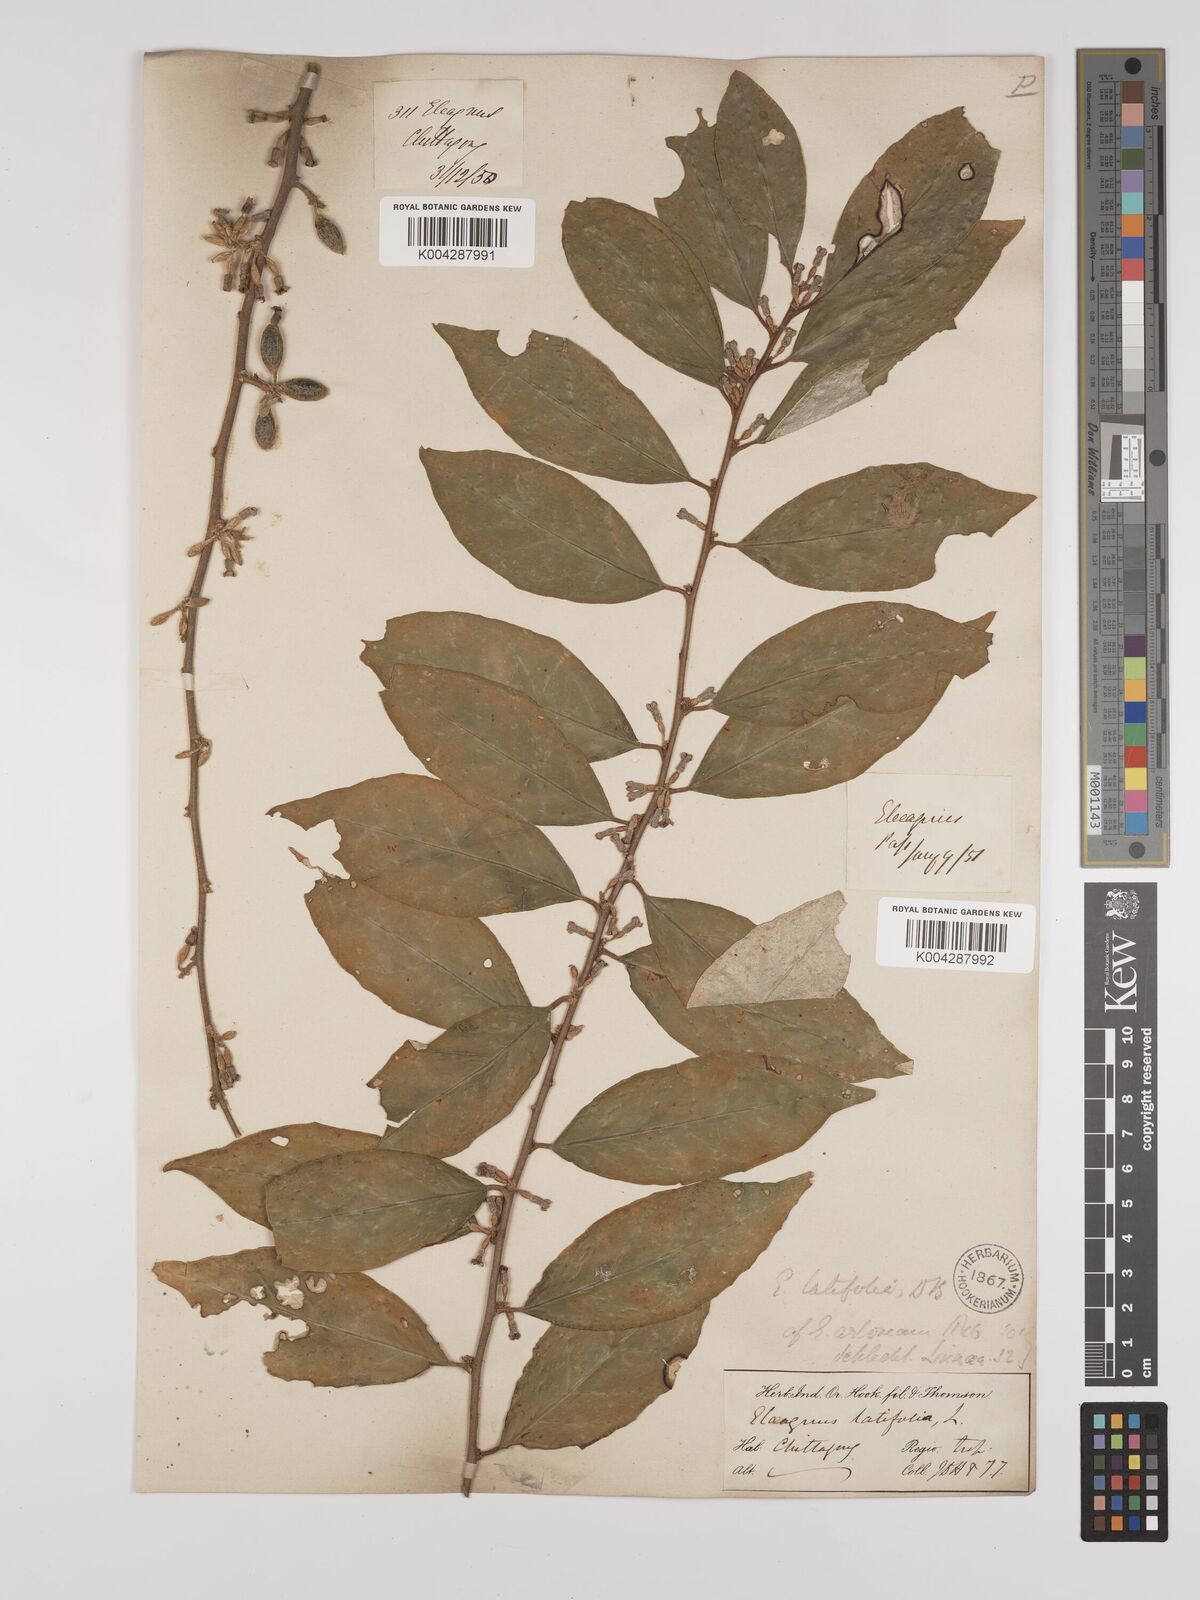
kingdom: Plantae
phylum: Tracheophyta
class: Magnoliopsida
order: Rosales
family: Elaeagnaceae
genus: Elaeagnus
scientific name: Elaeagnus latifolia
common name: Oleaster
